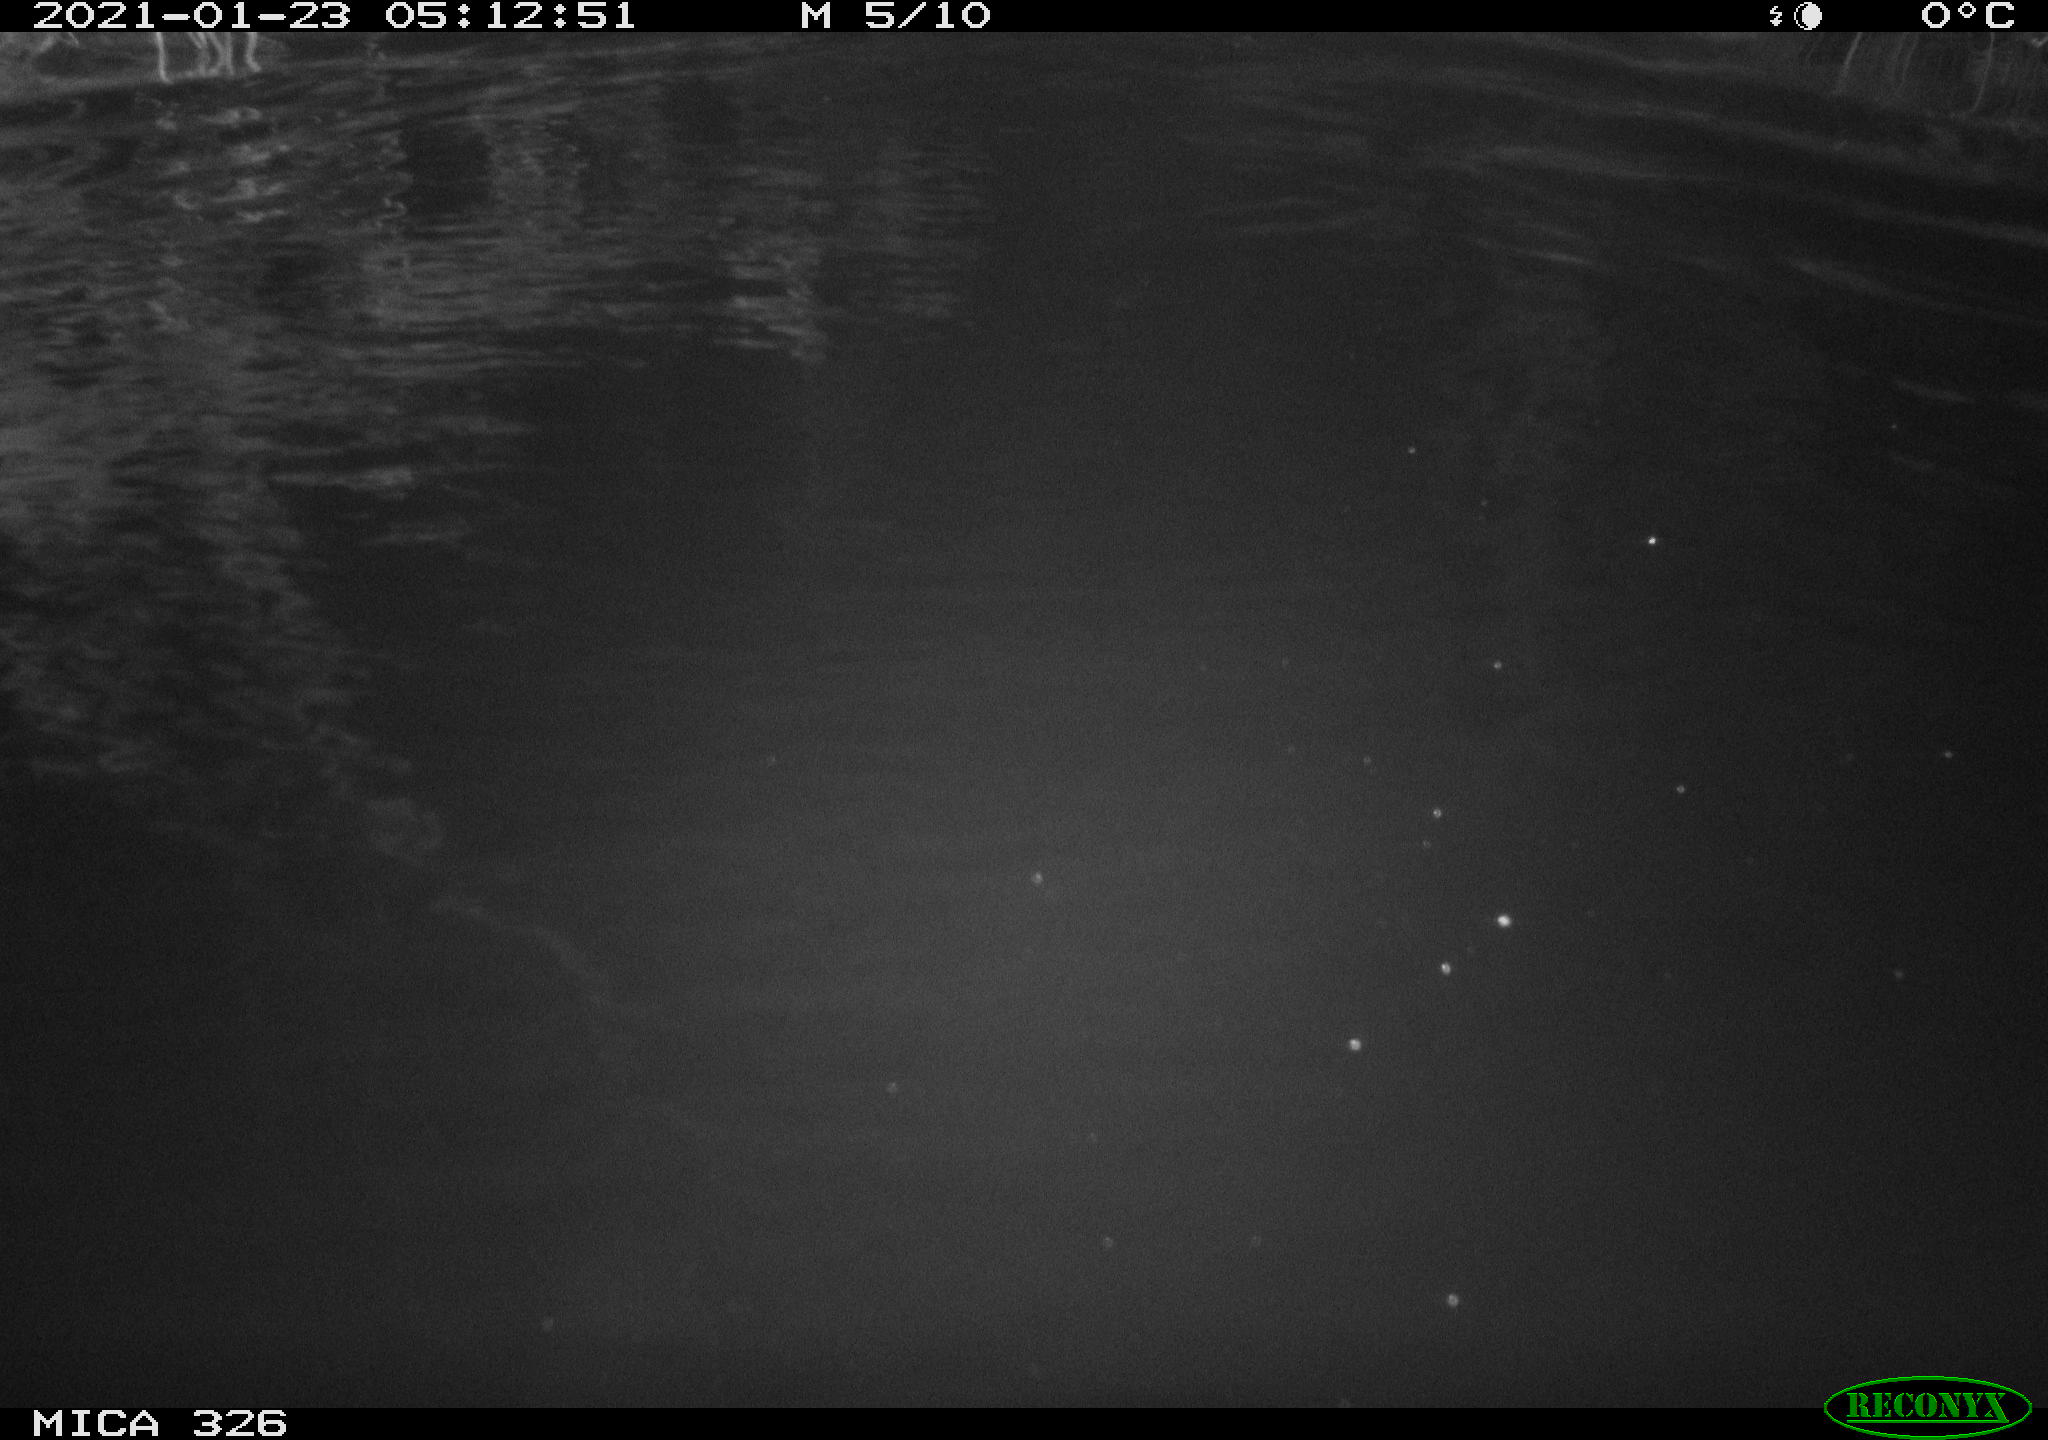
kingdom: Animalia
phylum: Chordata
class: Mammalia
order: Rodentia
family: Cricetidae
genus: Ondatra
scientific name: Ondatra zibethicus
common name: Muskrat
